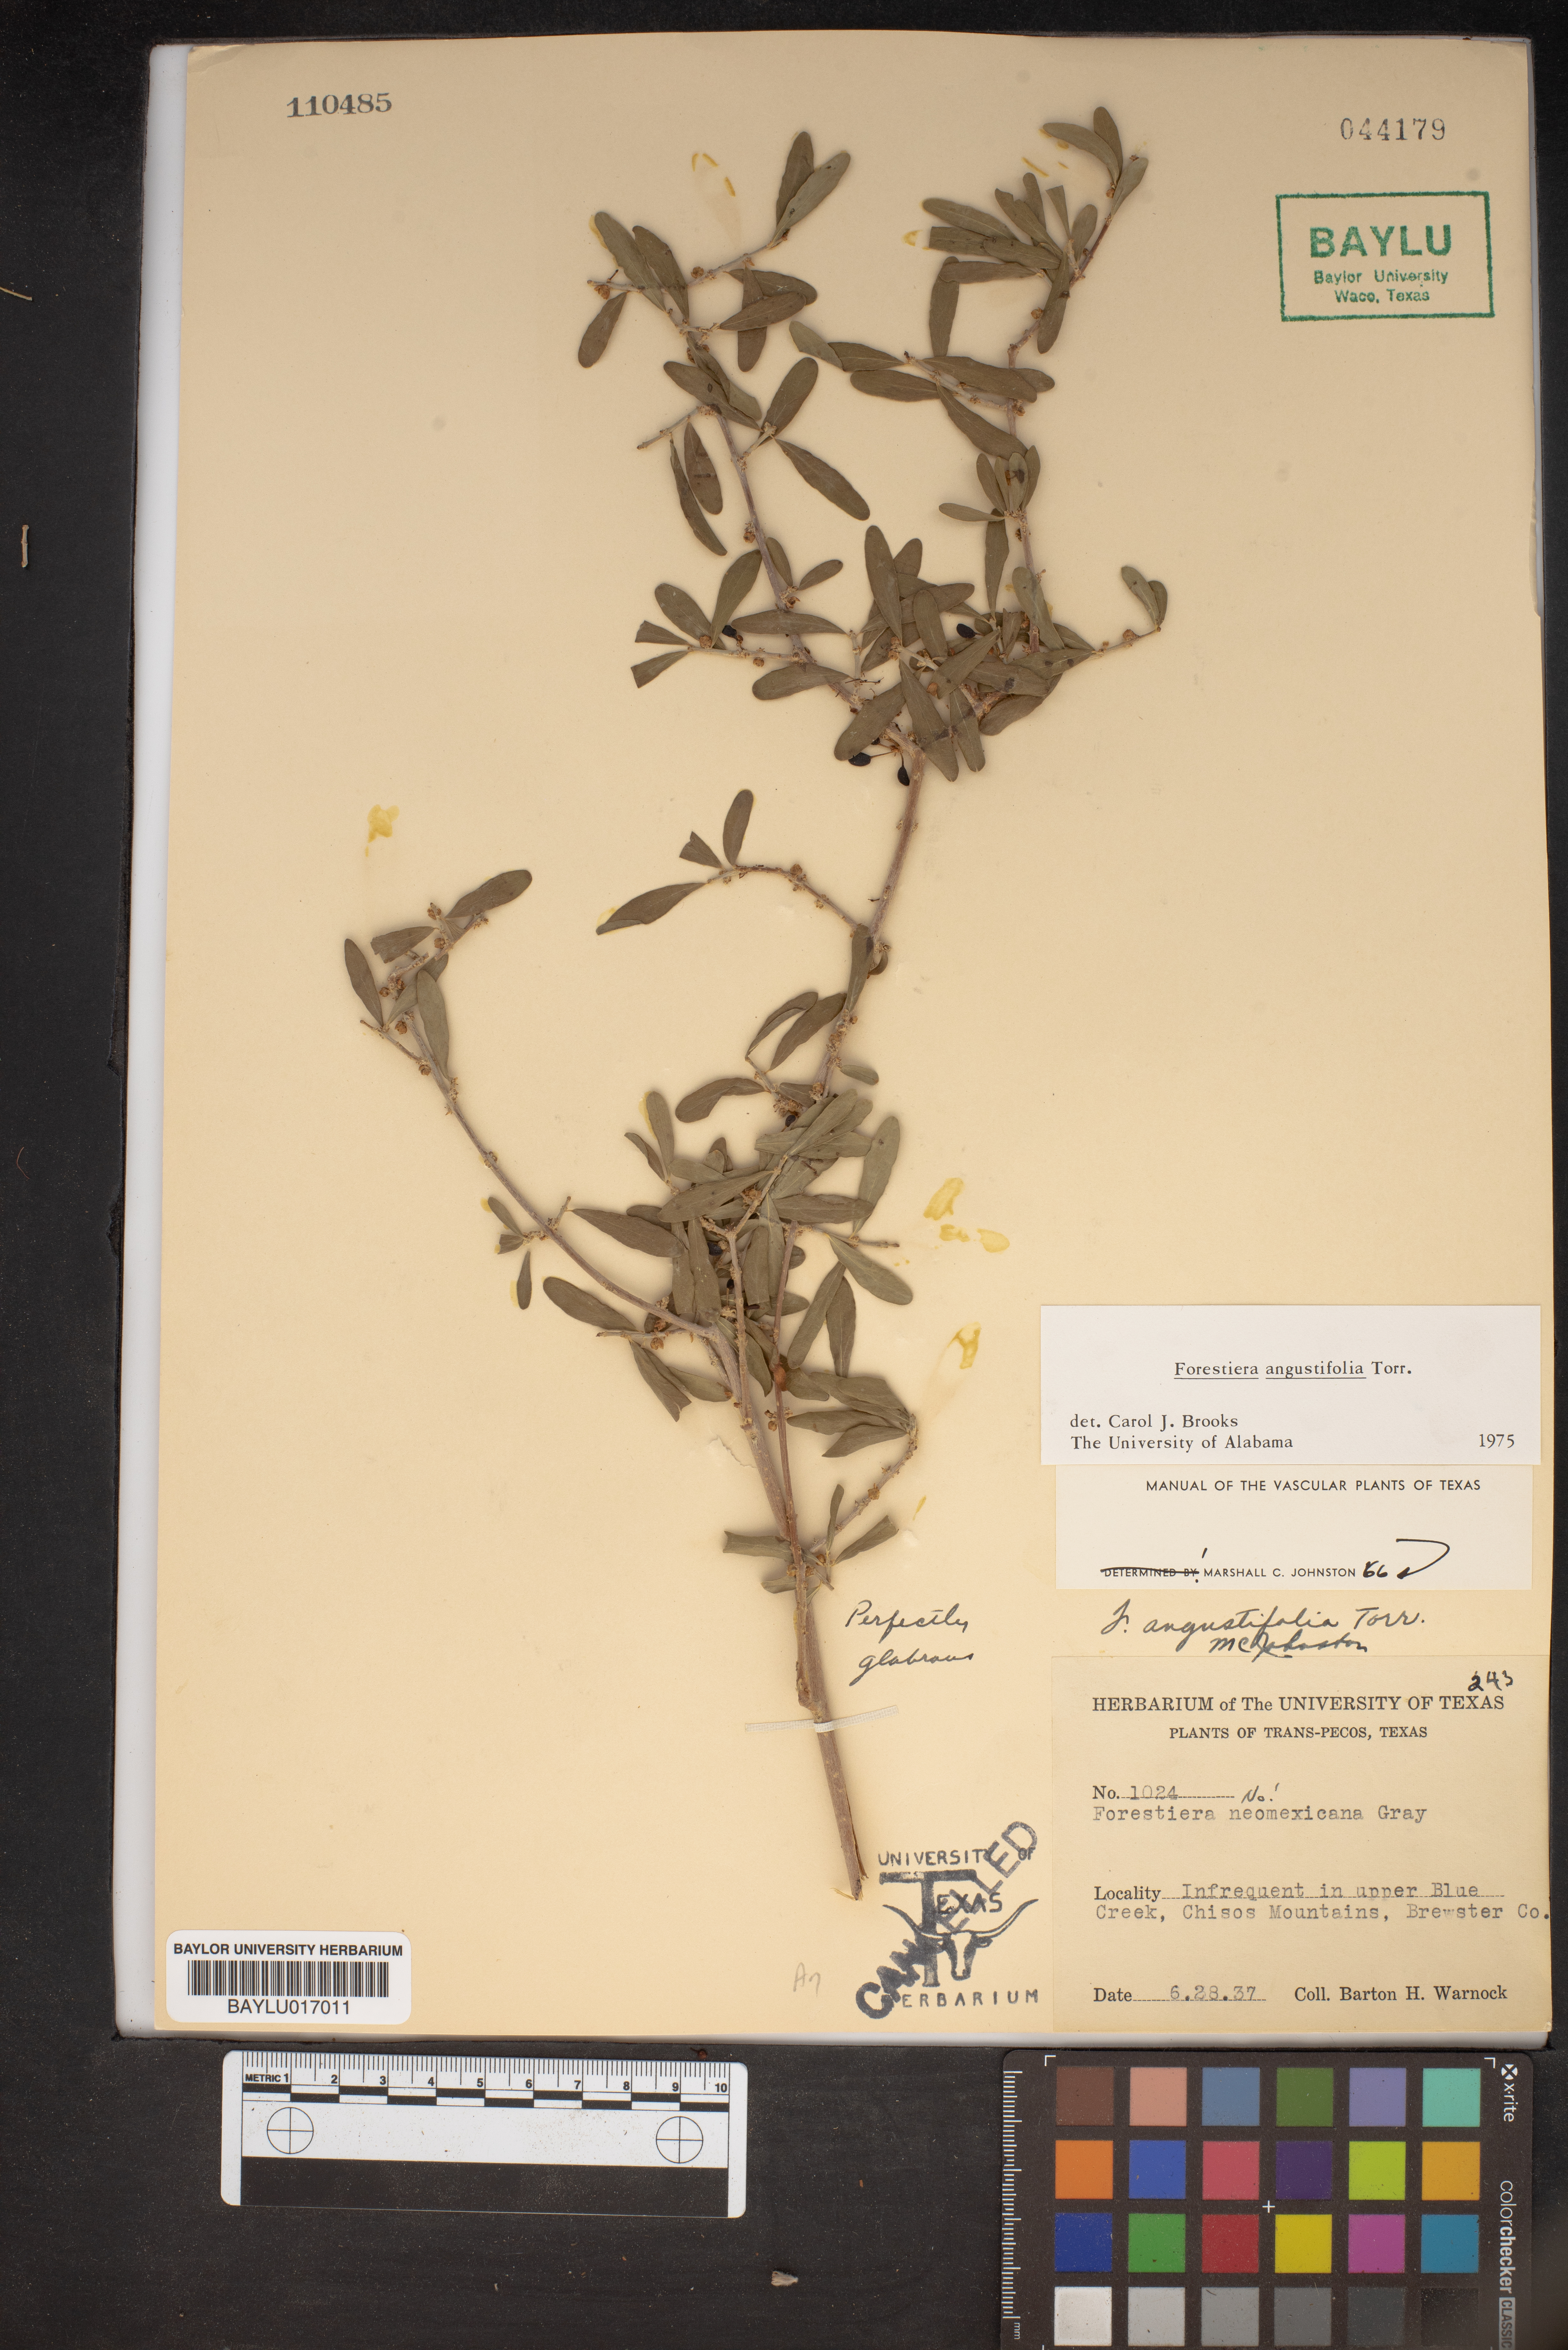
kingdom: Plantae
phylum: Tracheophyta
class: Magnoliopsida
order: Lamiales
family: Oleaceae
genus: Forestiera
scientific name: Forestiera pubescens
